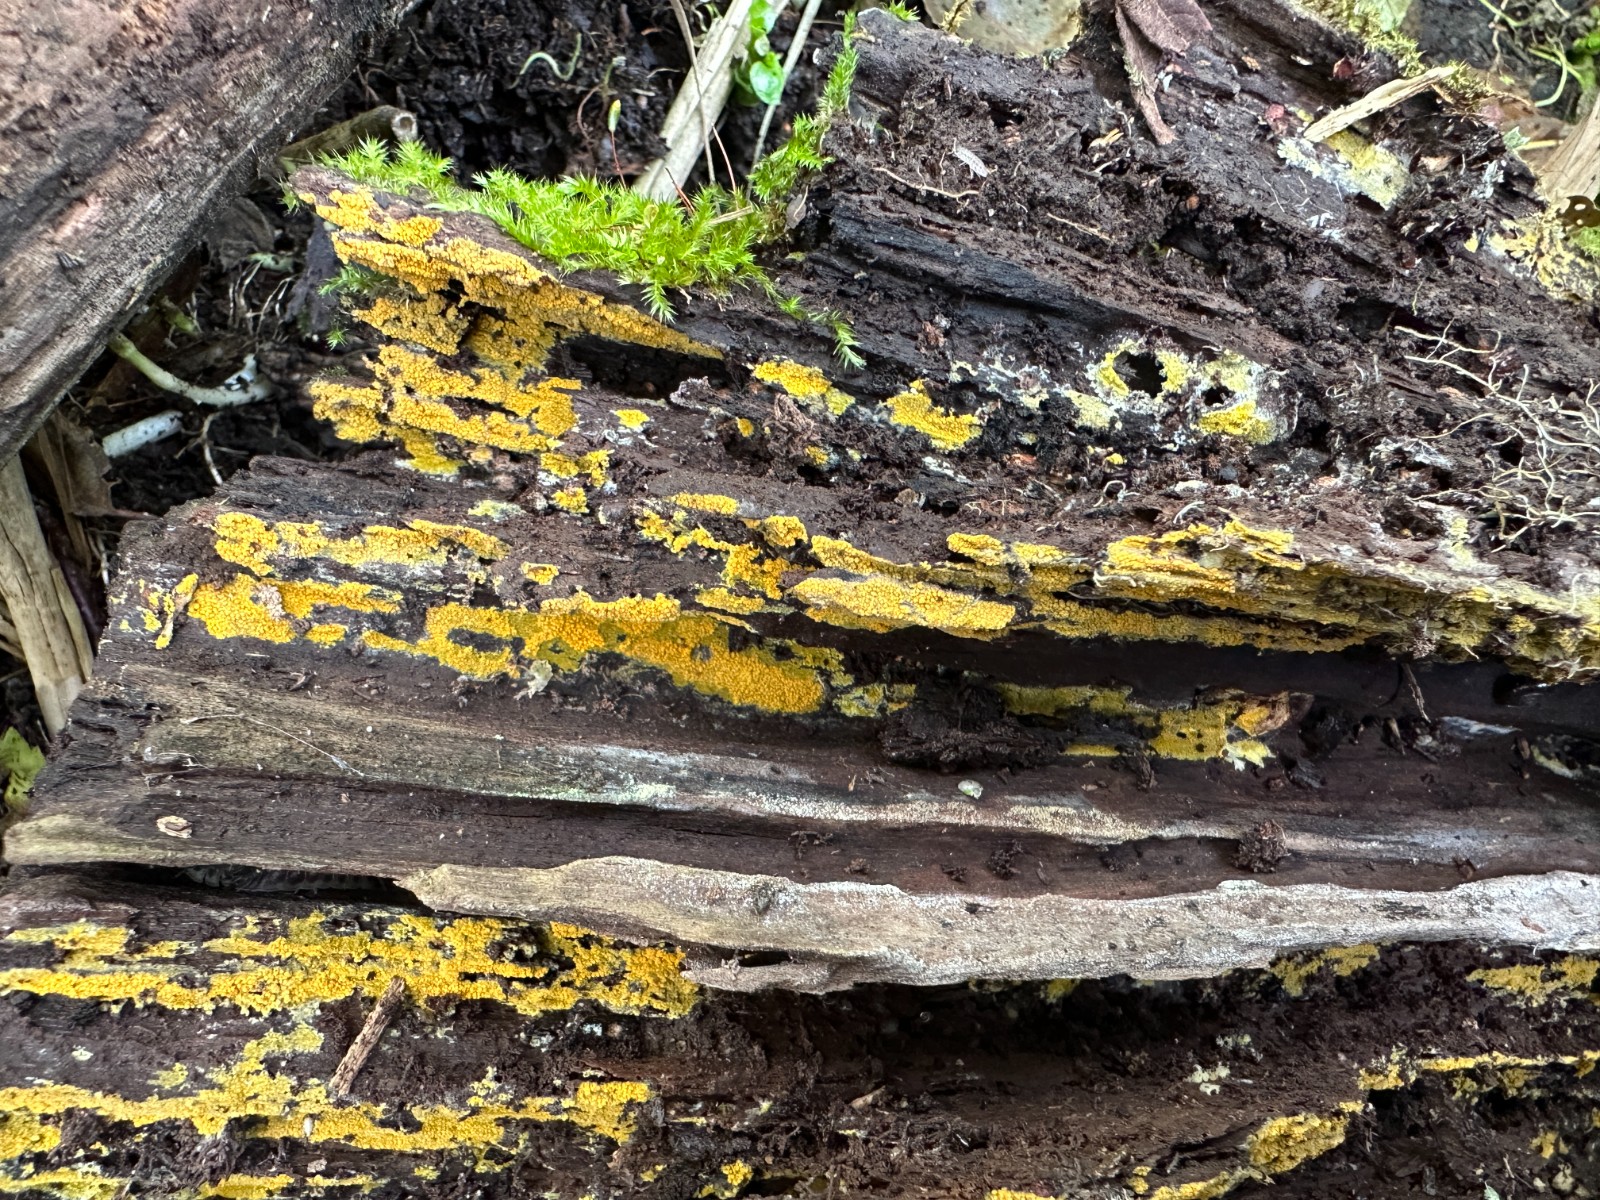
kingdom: Fungi
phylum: Basidiomycota
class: Agaricomycetes
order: Polyporales
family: Meruliaceae
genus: Phlebiodontia
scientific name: Phlebiodontia subochracea
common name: svovl-åresvamp
